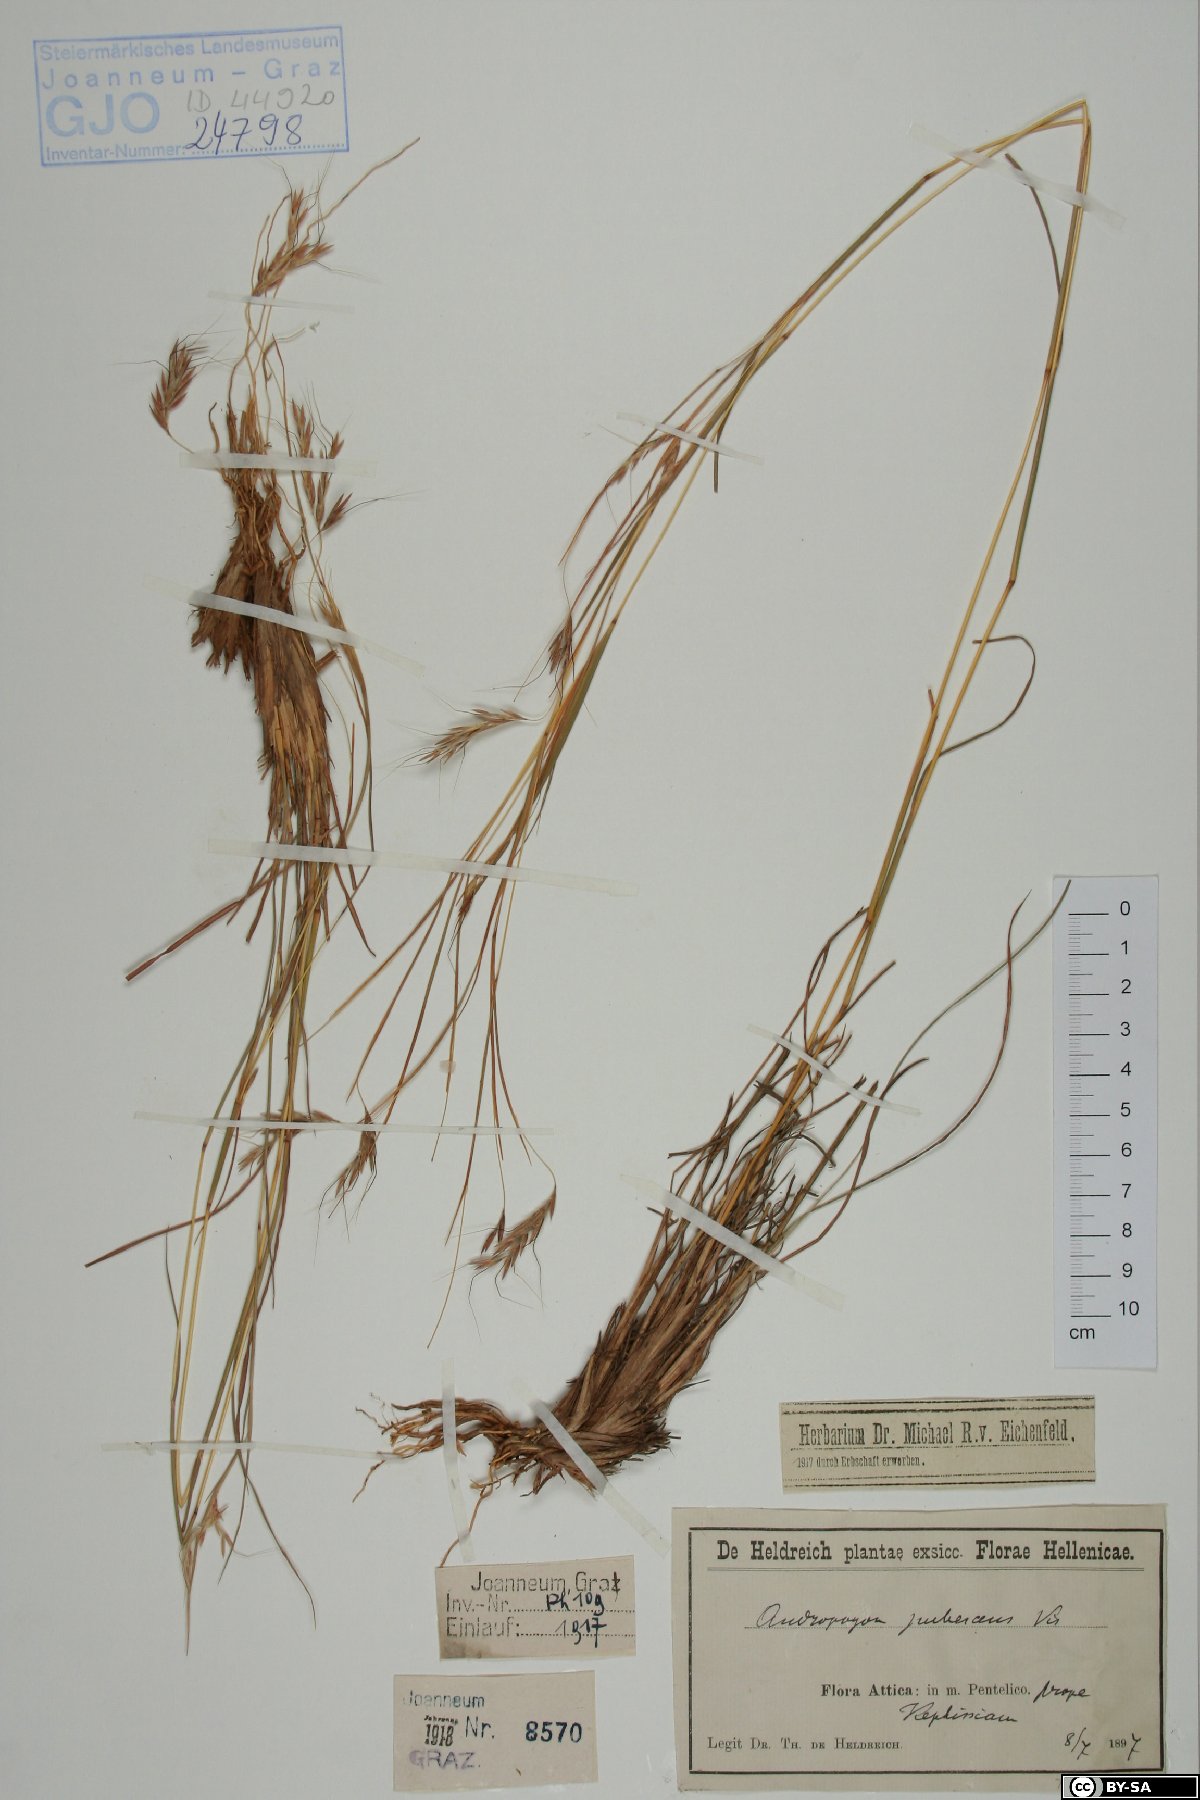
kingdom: Plantae
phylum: Tracheophyta
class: Liliopsida
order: Poales
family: Poaceae
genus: Hyparrhenia
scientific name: Hyparrhenia hirta
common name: Thatching grass
